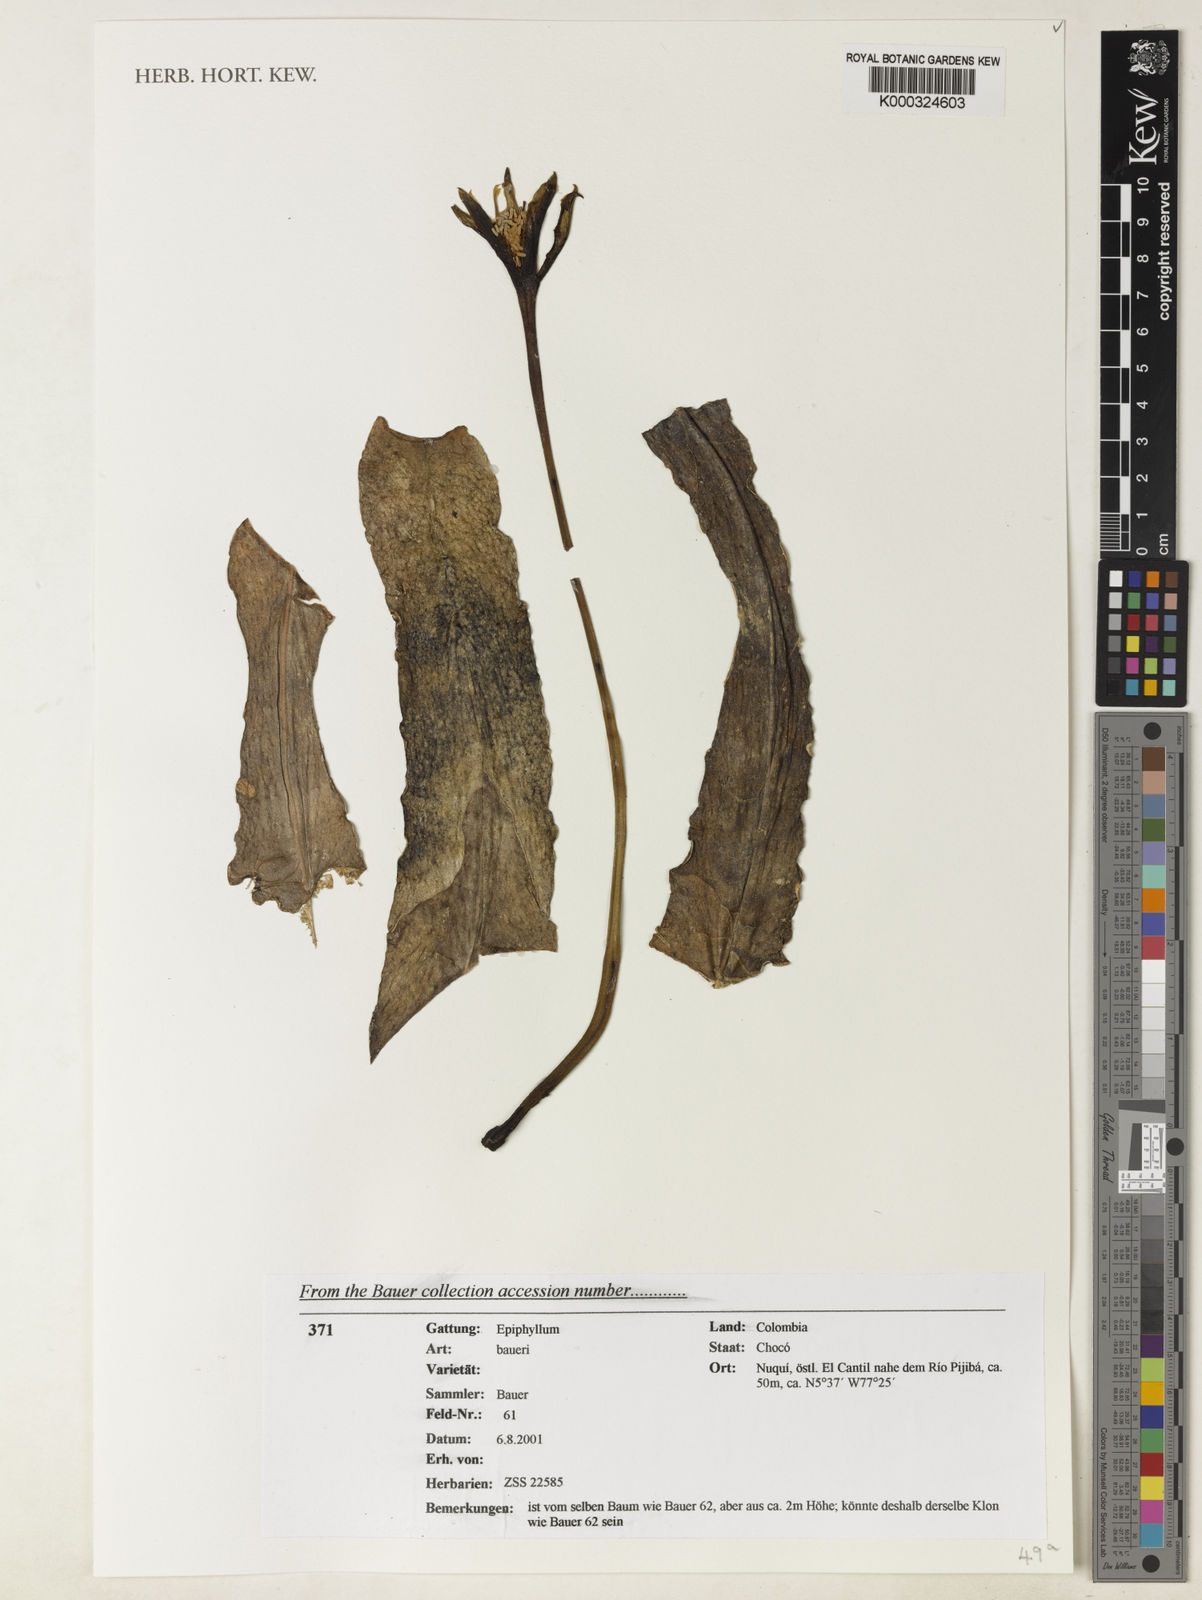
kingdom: Plantae
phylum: Tracheophyta
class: Magnoliopsida
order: Caryophyllales
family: Cactaceae
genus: Epiphyllum
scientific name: Epiphyllum baueri
